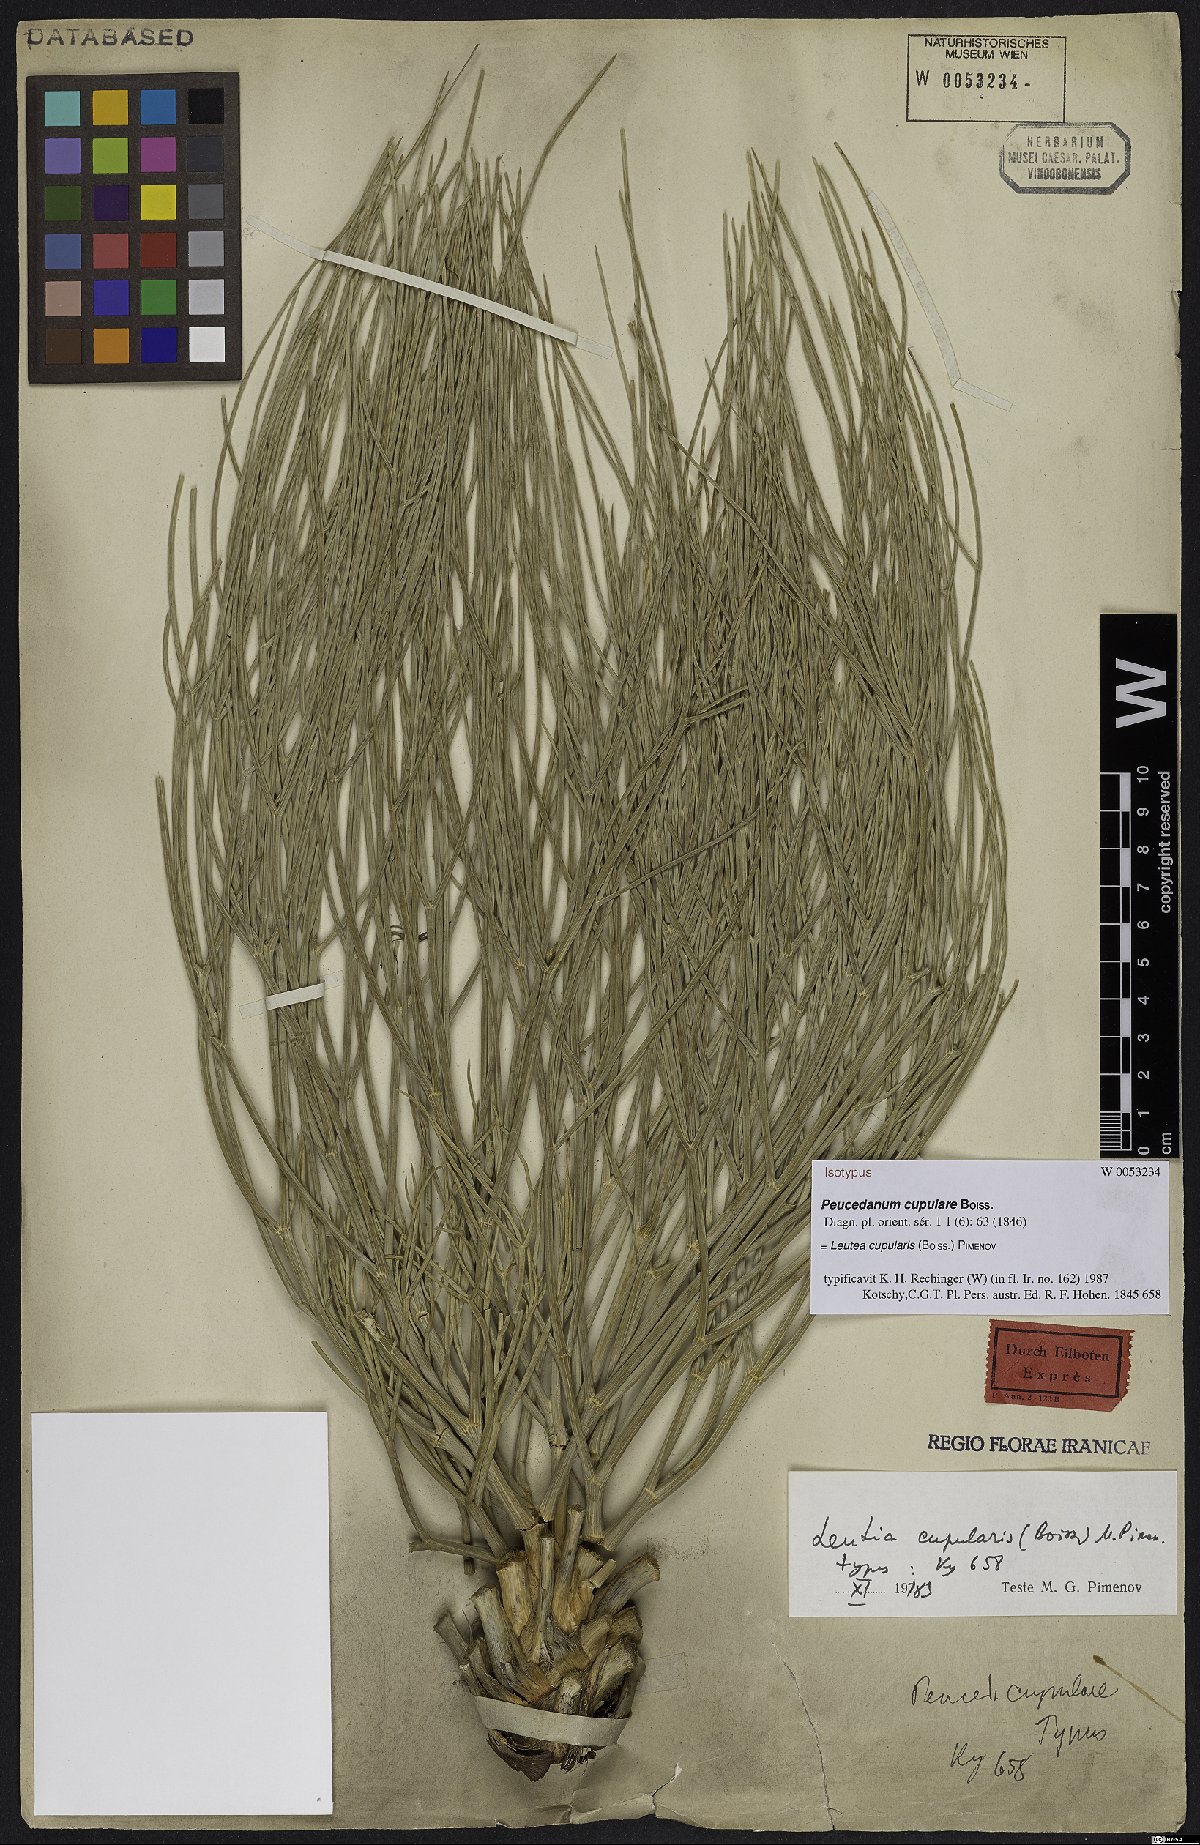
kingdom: Plantae
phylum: Tracheophyta
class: Magnoliopsida
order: Apiales
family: Apiaceae
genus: Ferula
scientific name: Ferula cupularis
